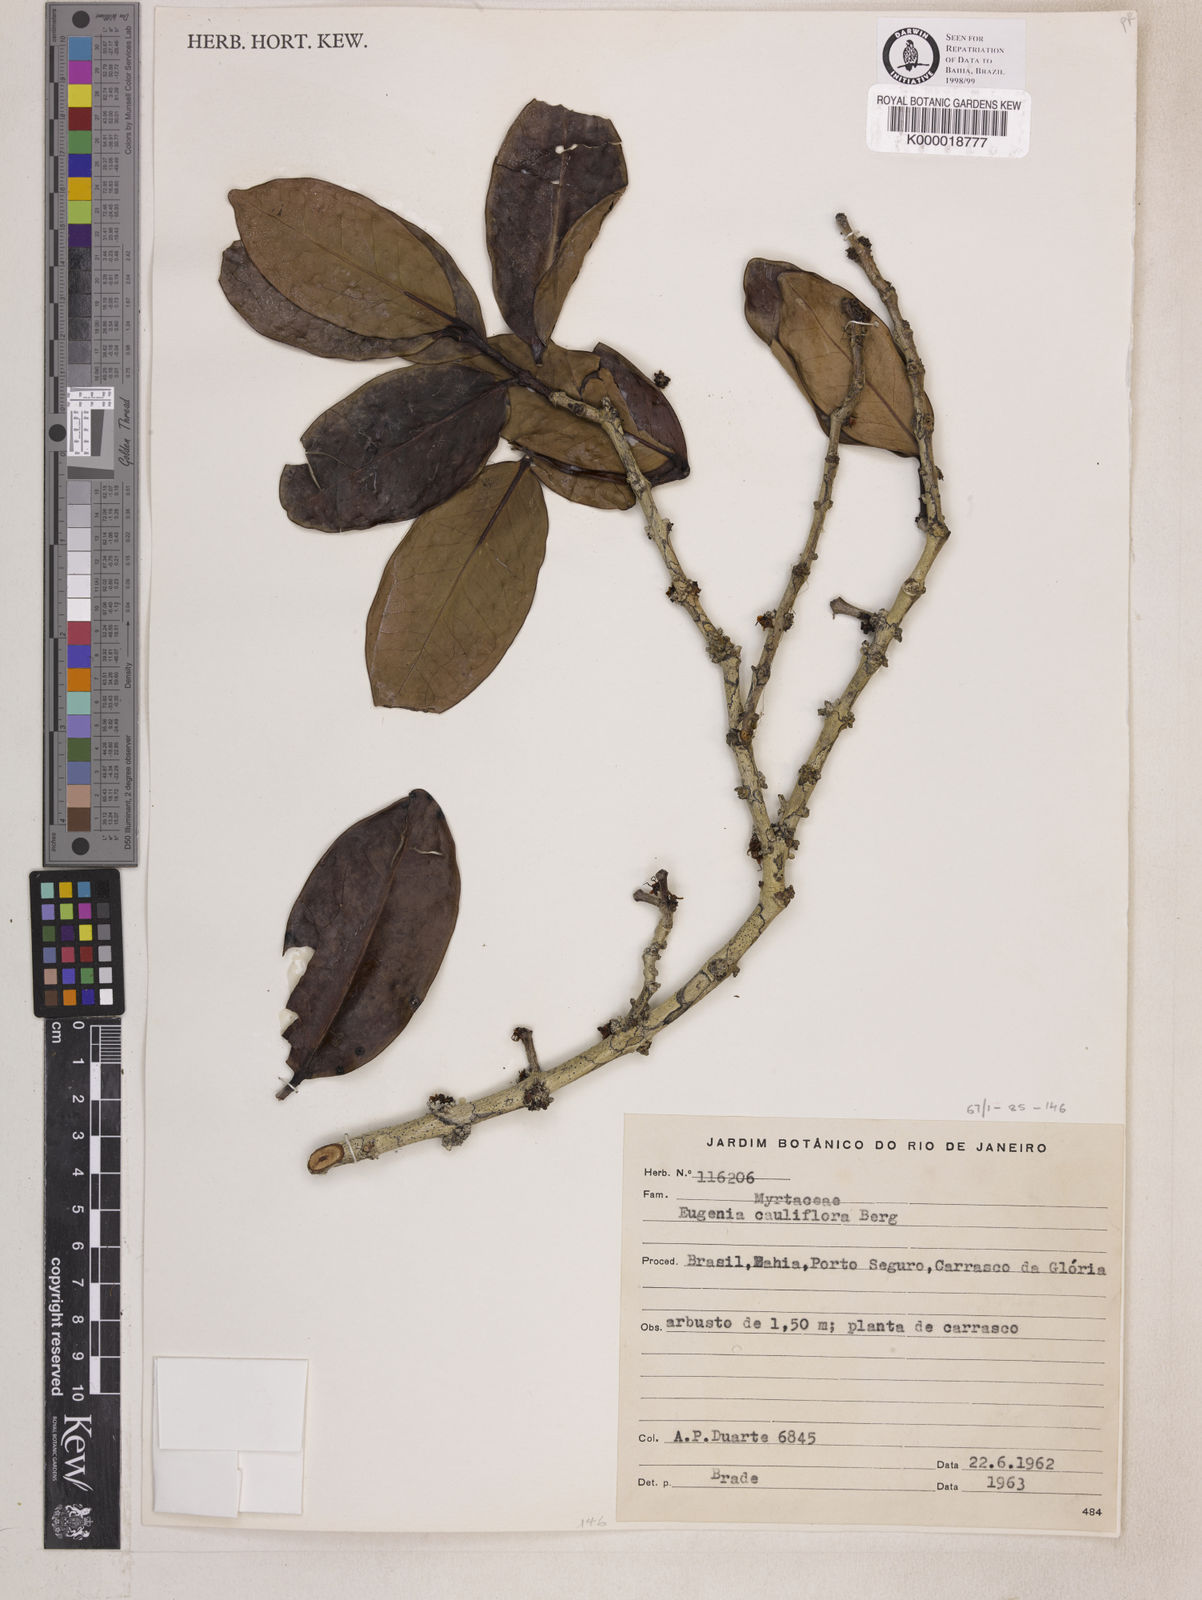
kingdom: Plantae
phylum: Tracheophyta
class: Magnoliopsida
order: Myrtales
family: Myrtaceae
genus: Plinia
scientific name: Plinia cauliflora
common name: Brazilian grapetree
